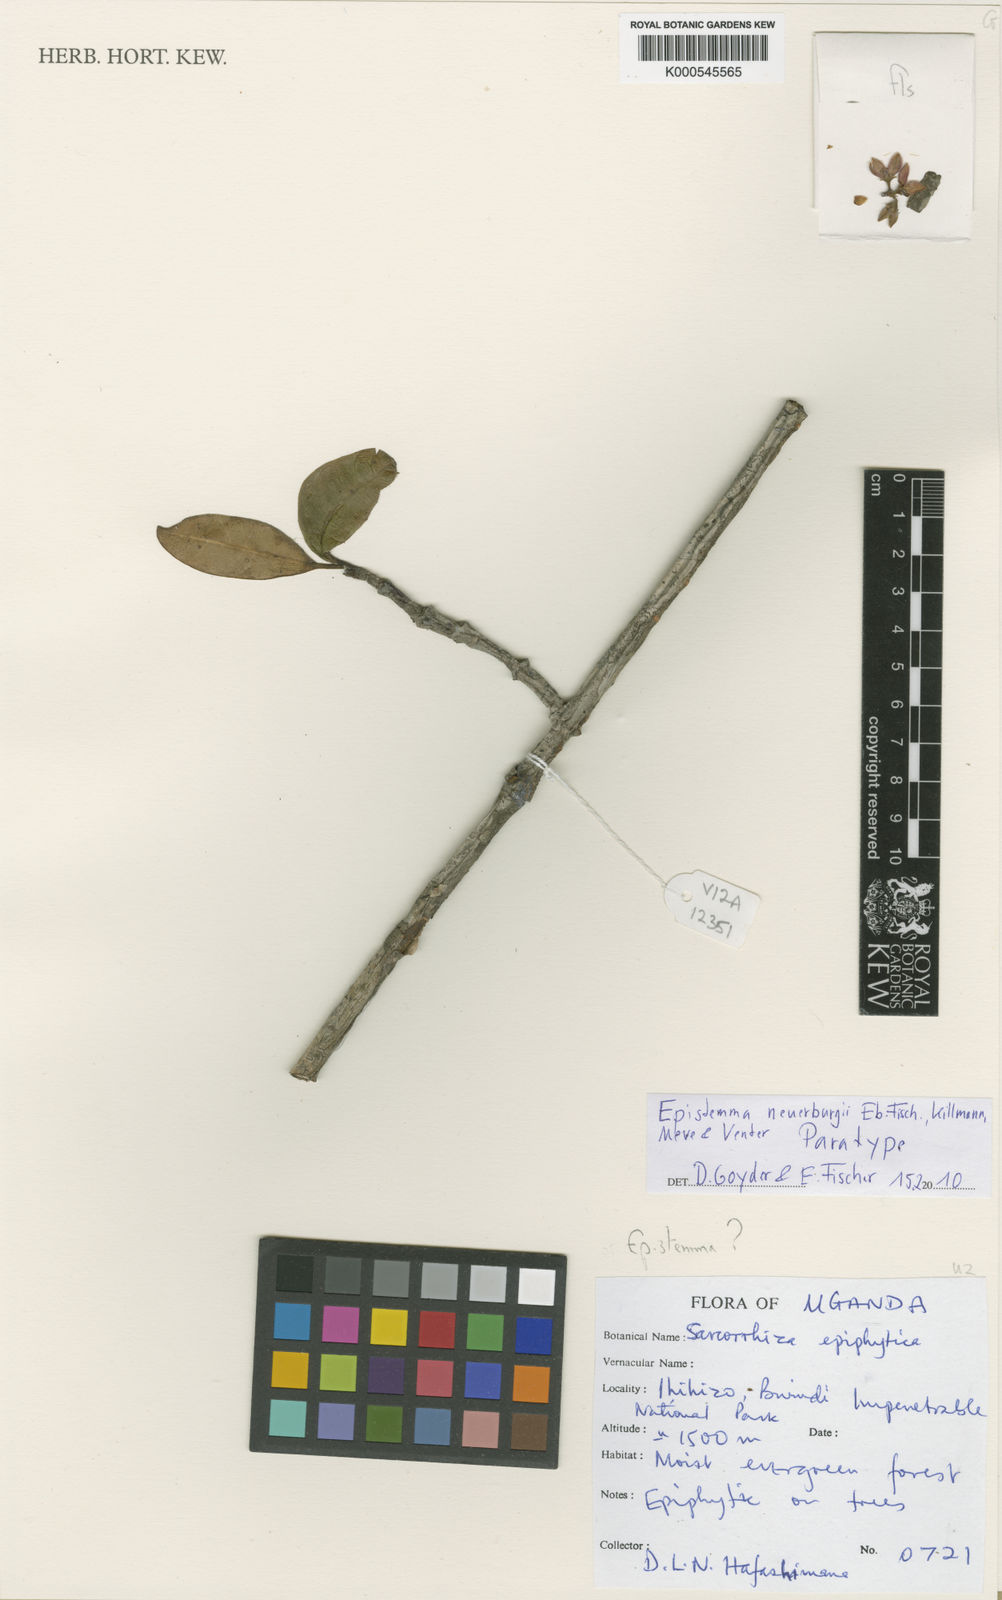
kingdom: Plantae
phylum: Tracheophyta
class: Magnoliopsida
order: Gentianales
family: Apocynaceae
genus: Epistemma
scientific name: Epistemma
